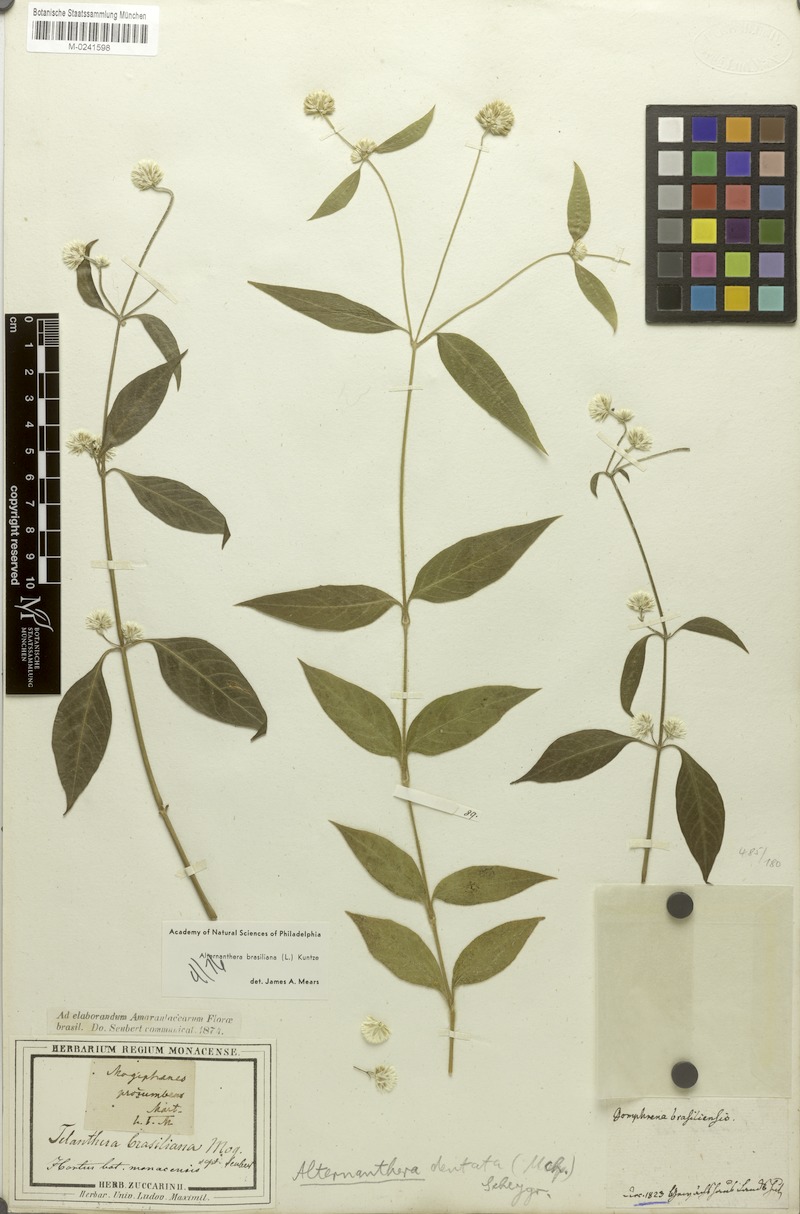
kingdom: Plantae
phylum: Tracheophyta
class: Magnoliopsida
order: Caryophyllales
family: Amaranthaceae
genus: Alternanthera
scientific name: Alternanthera brasiliana
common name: Brazilian joyweed
